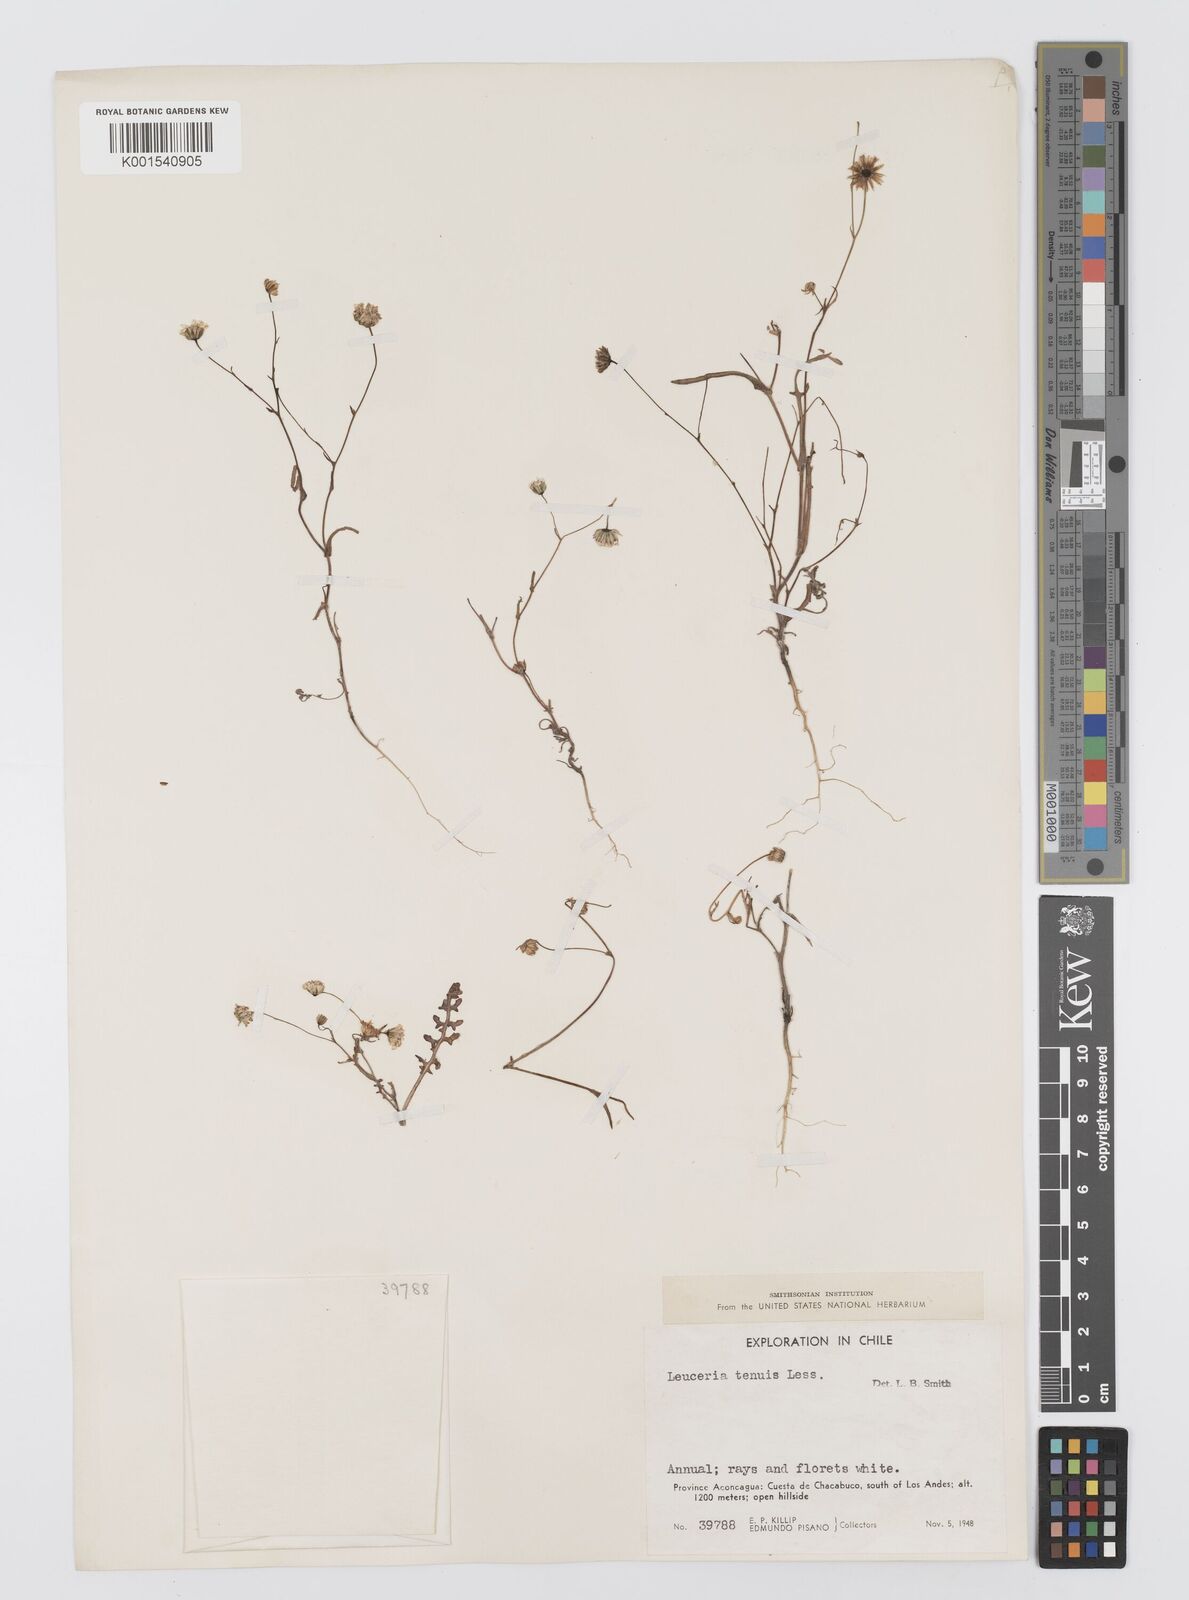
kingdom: Plantae
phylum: Tracheophyta
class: Magnoliopsida
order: Asterales
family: Asteraceae
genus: Leucheria
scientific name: Leucheria tenuis
